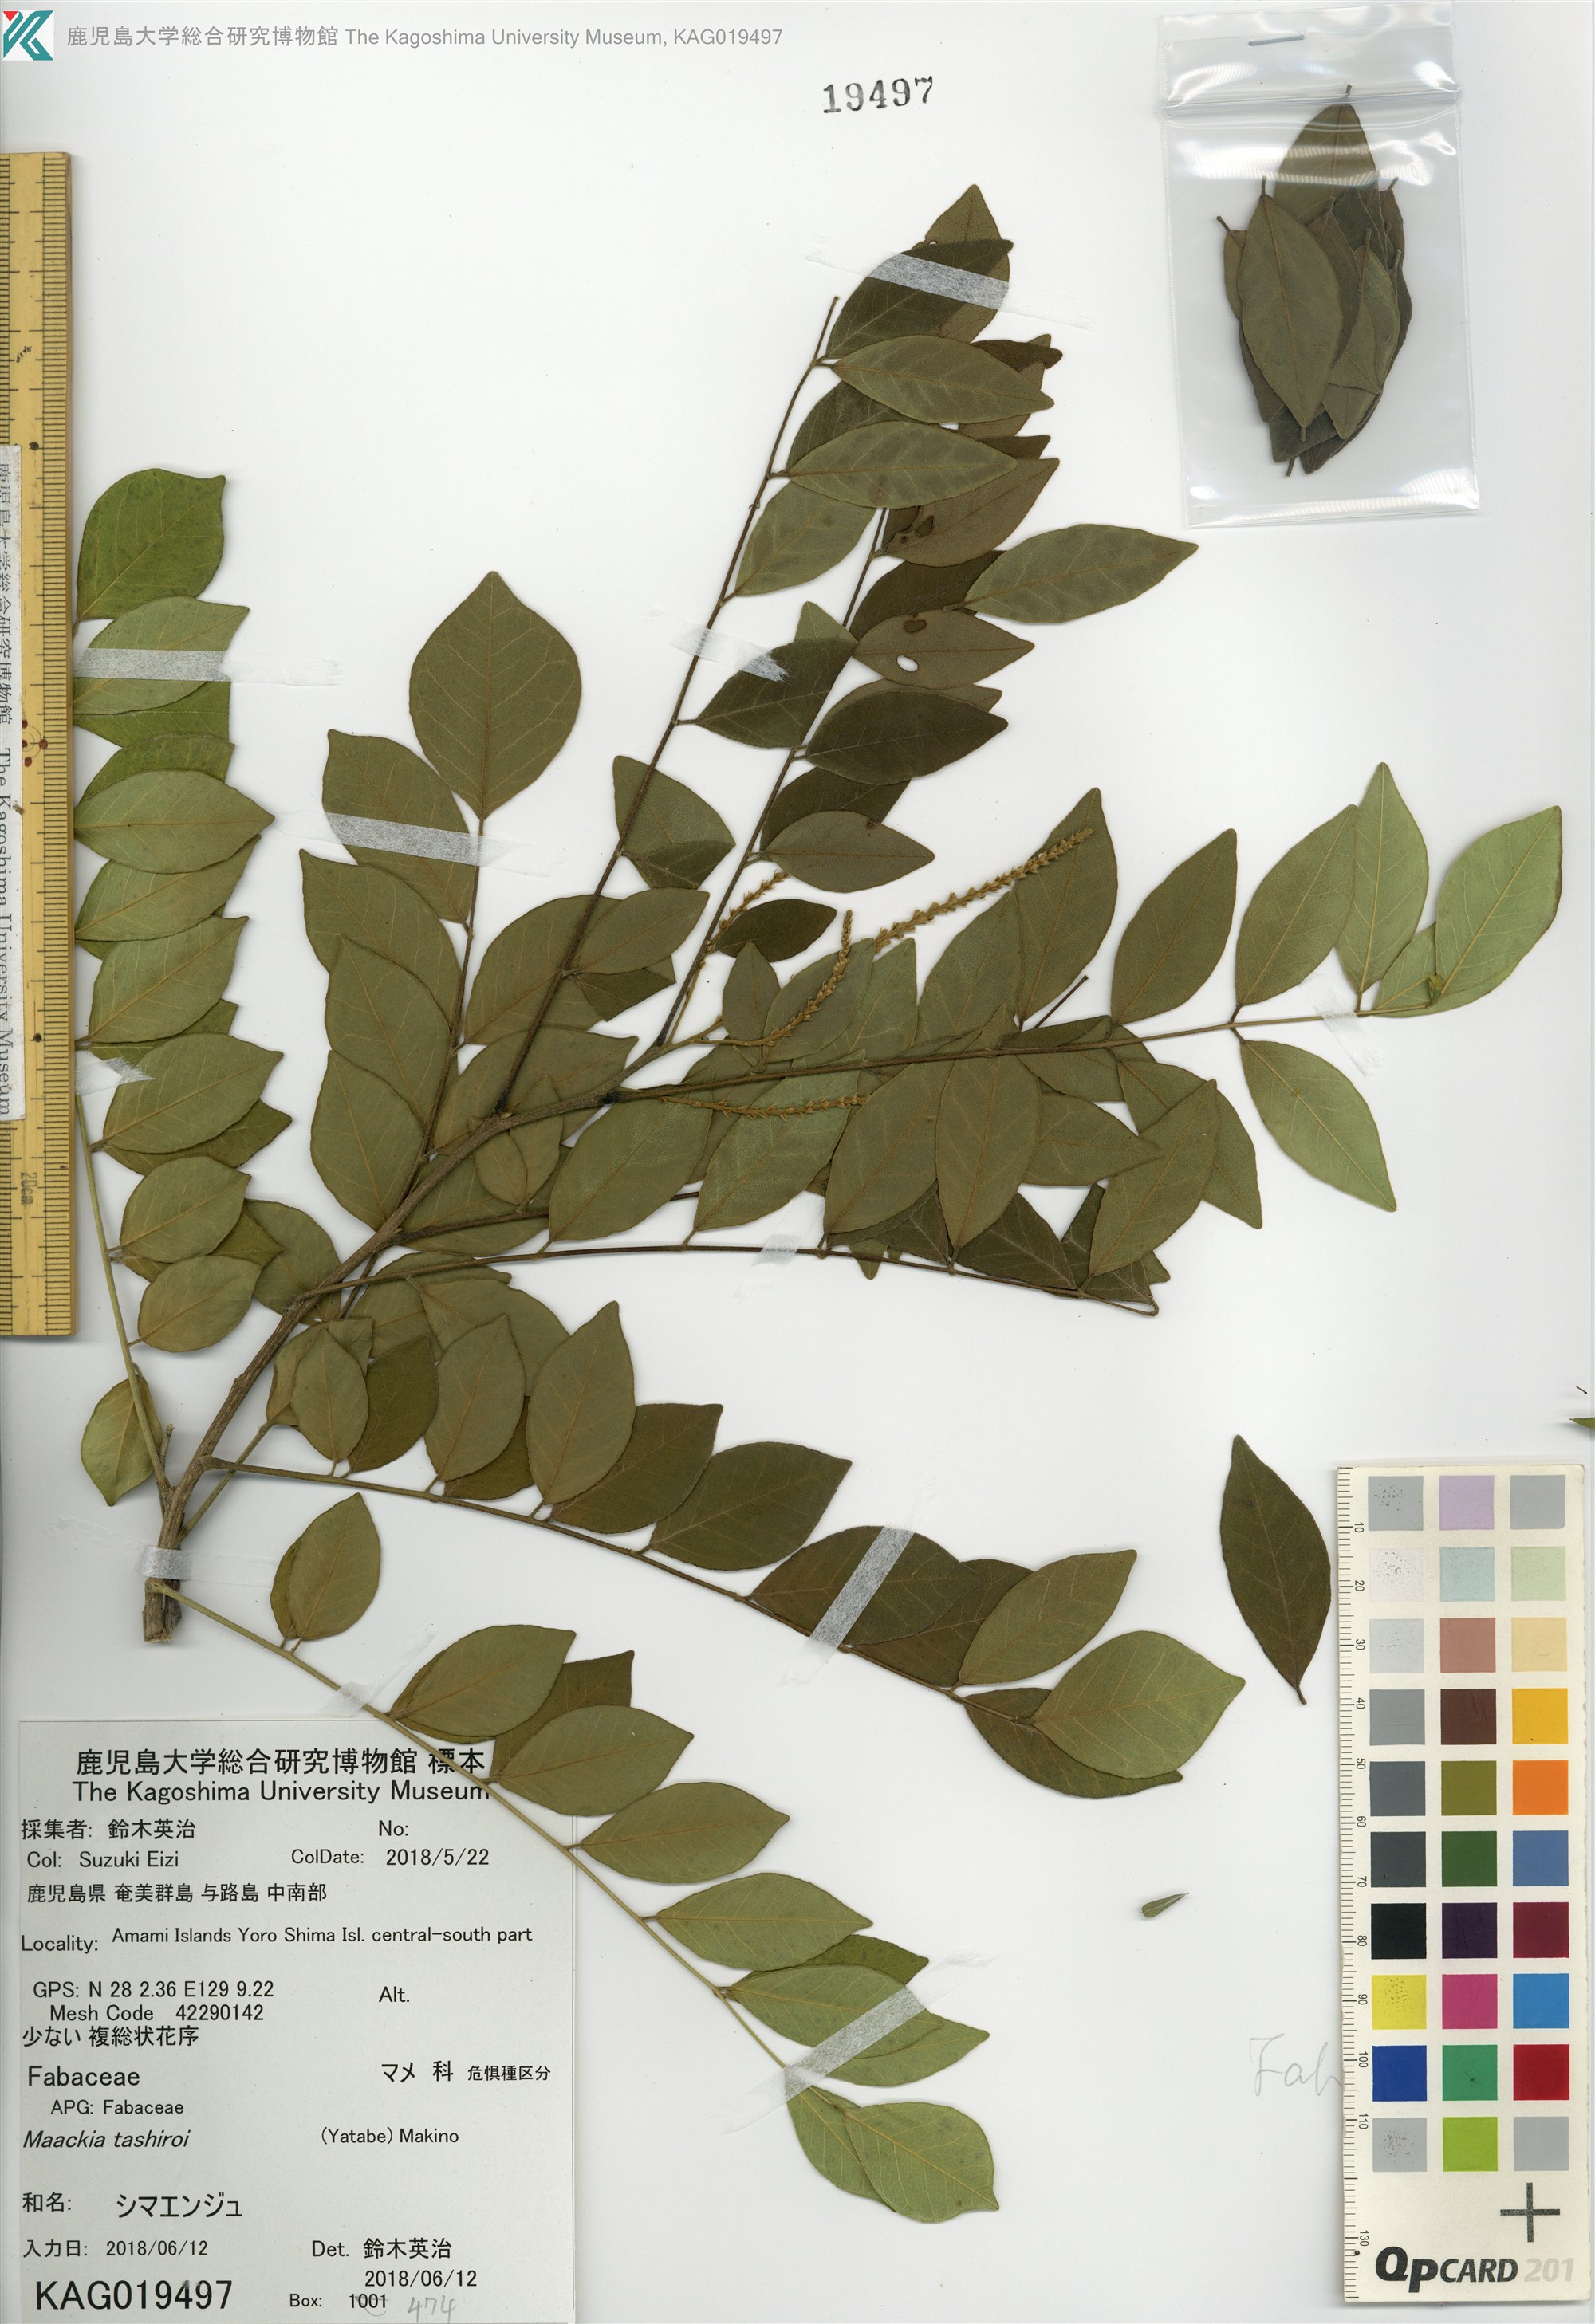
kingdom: Plantae
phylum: Tracheophyta
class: Magnoliopsida
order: Fabales
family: Fabaceae
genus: Maackia
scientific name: Maackia tashiroi
